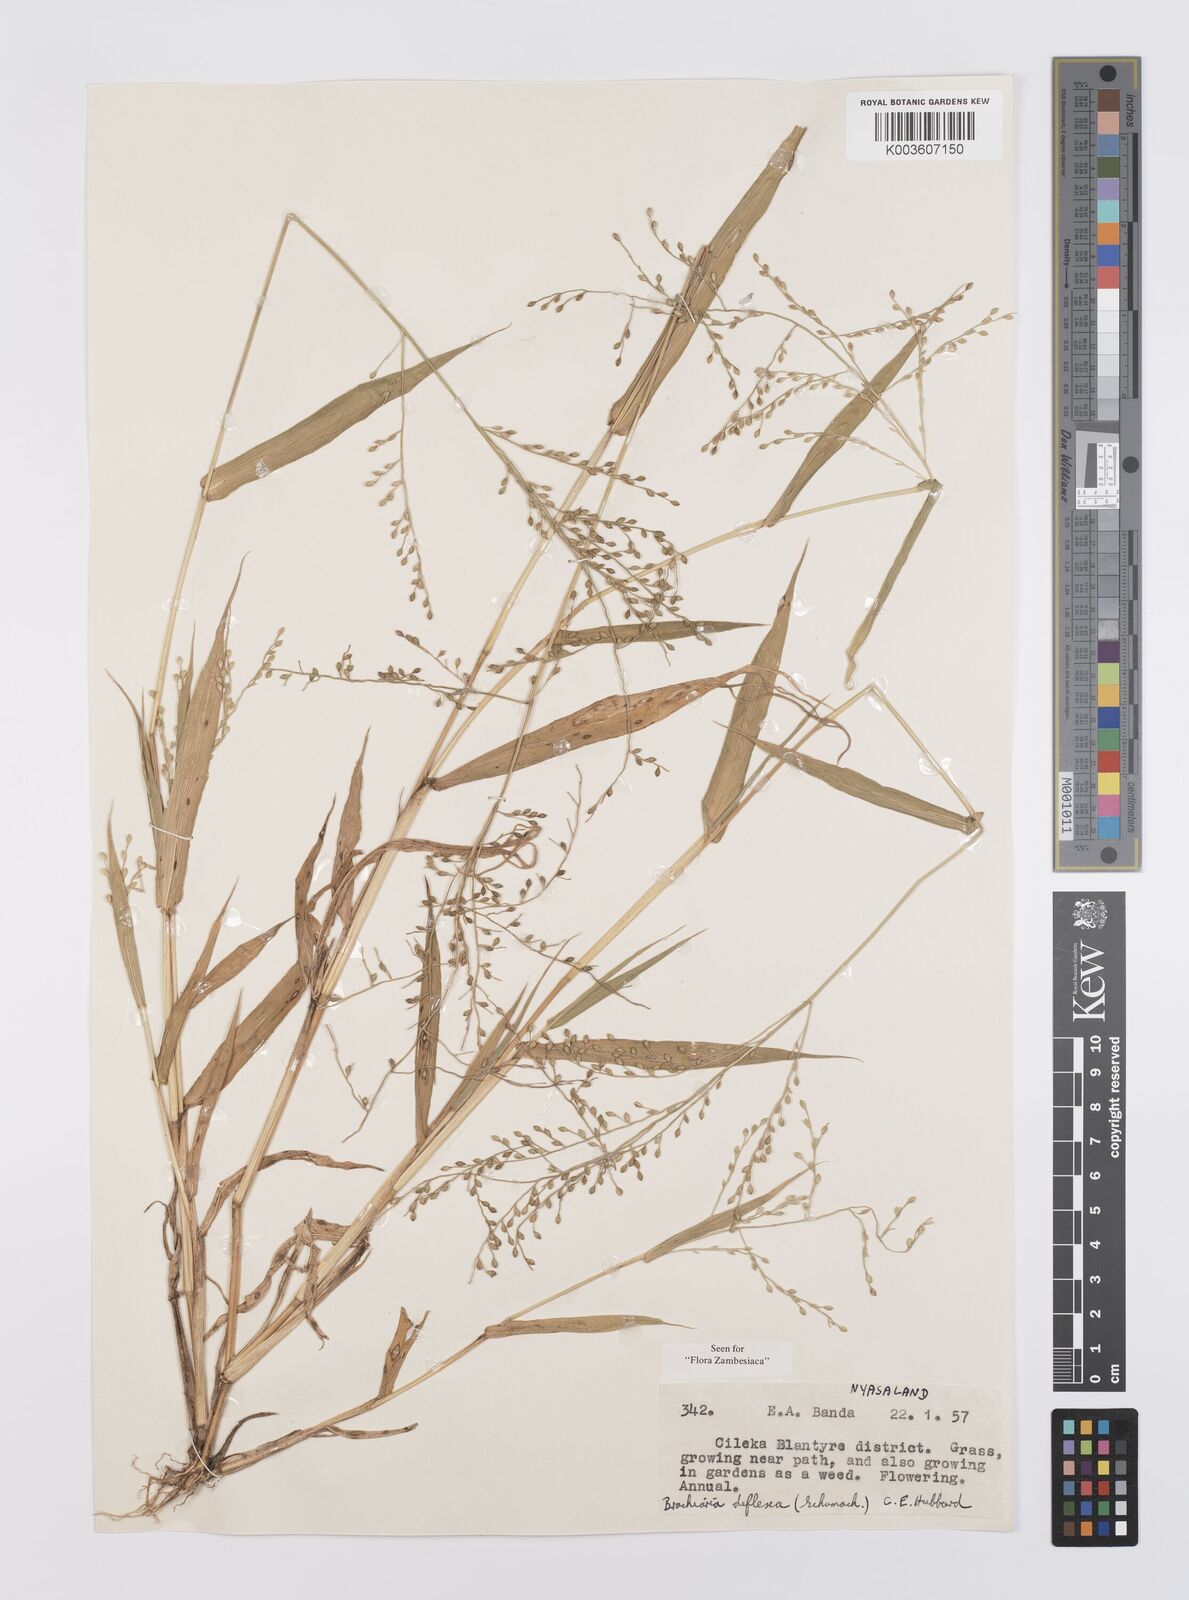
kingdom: Plantae
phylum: Tracheophyta
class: Liliopsida
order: Poales
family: Poaceae
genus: Urochloa
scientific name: Urochloa deflexa
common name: Guinea millet
